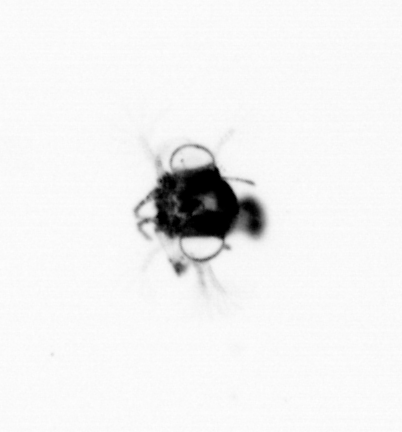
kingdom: Animalia
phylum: Arthropoda
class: Malacostraca
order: Decapoda
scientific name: Decapoda
